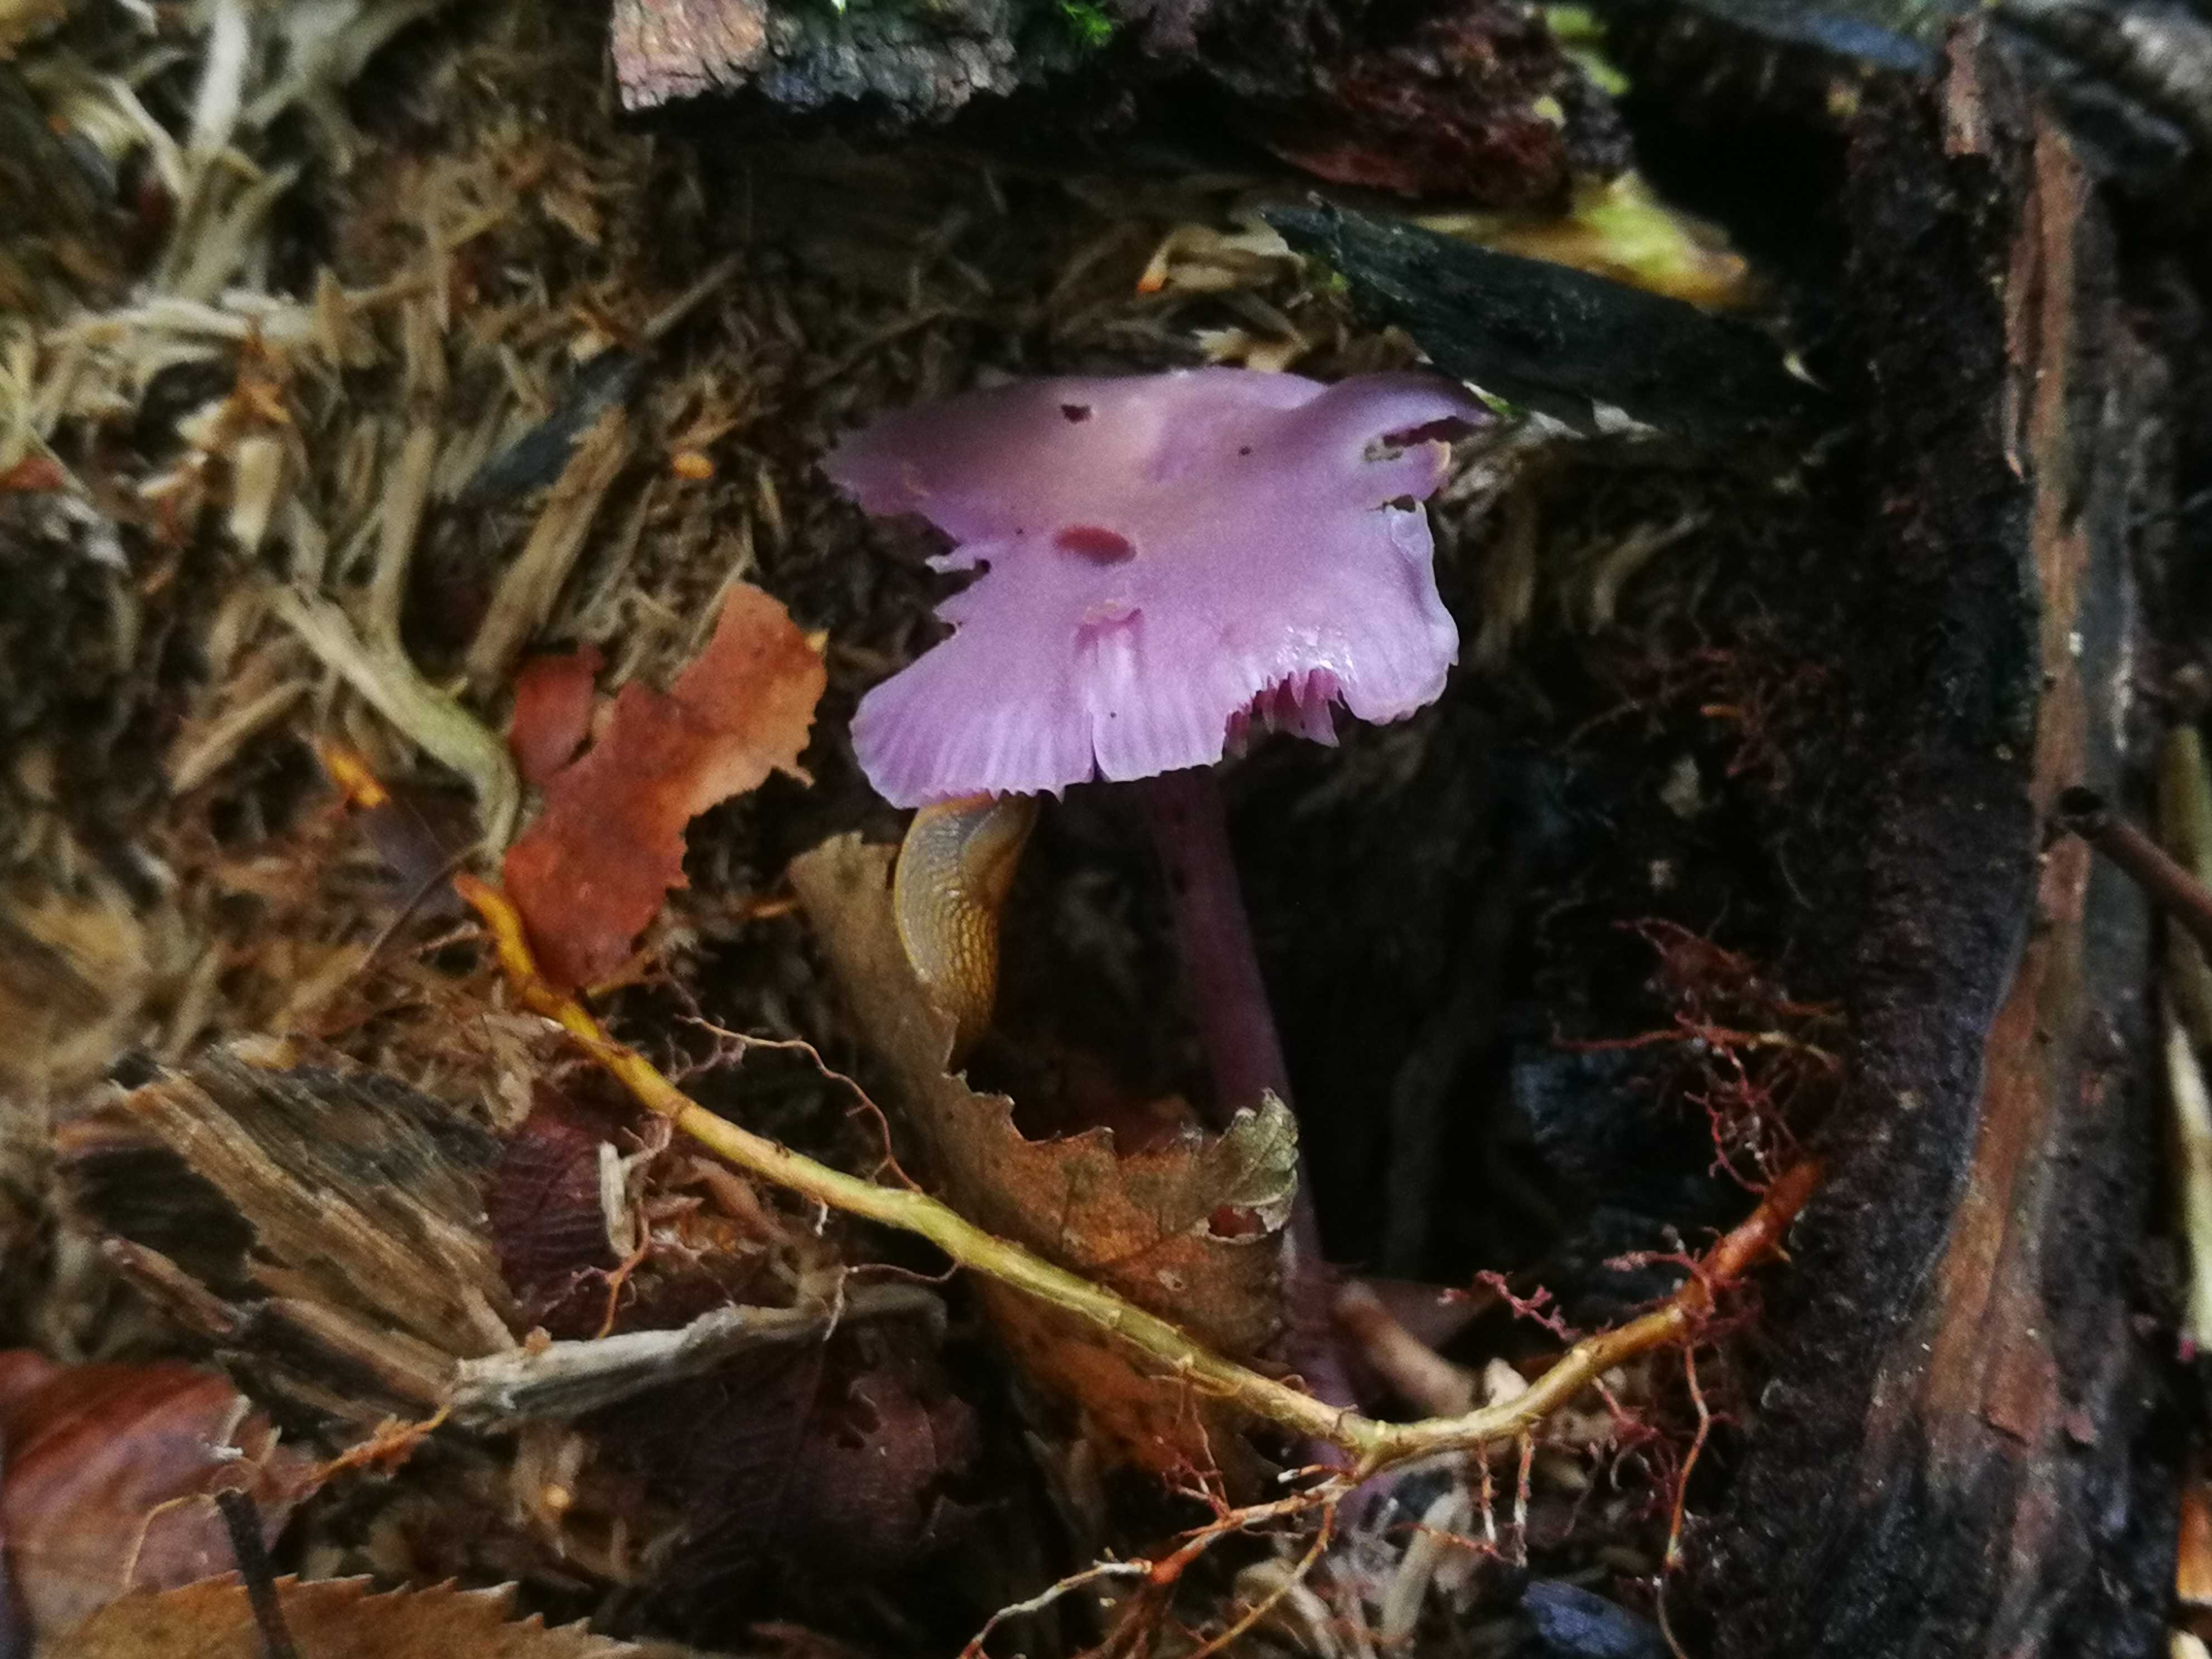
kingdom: Fungi
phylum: Basidiomycota
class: Agaricomycetes
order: Agaricales
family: Hydnangiaceae
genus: Laccaria
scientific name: Laccaria amethystina
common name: violet ametysthat
